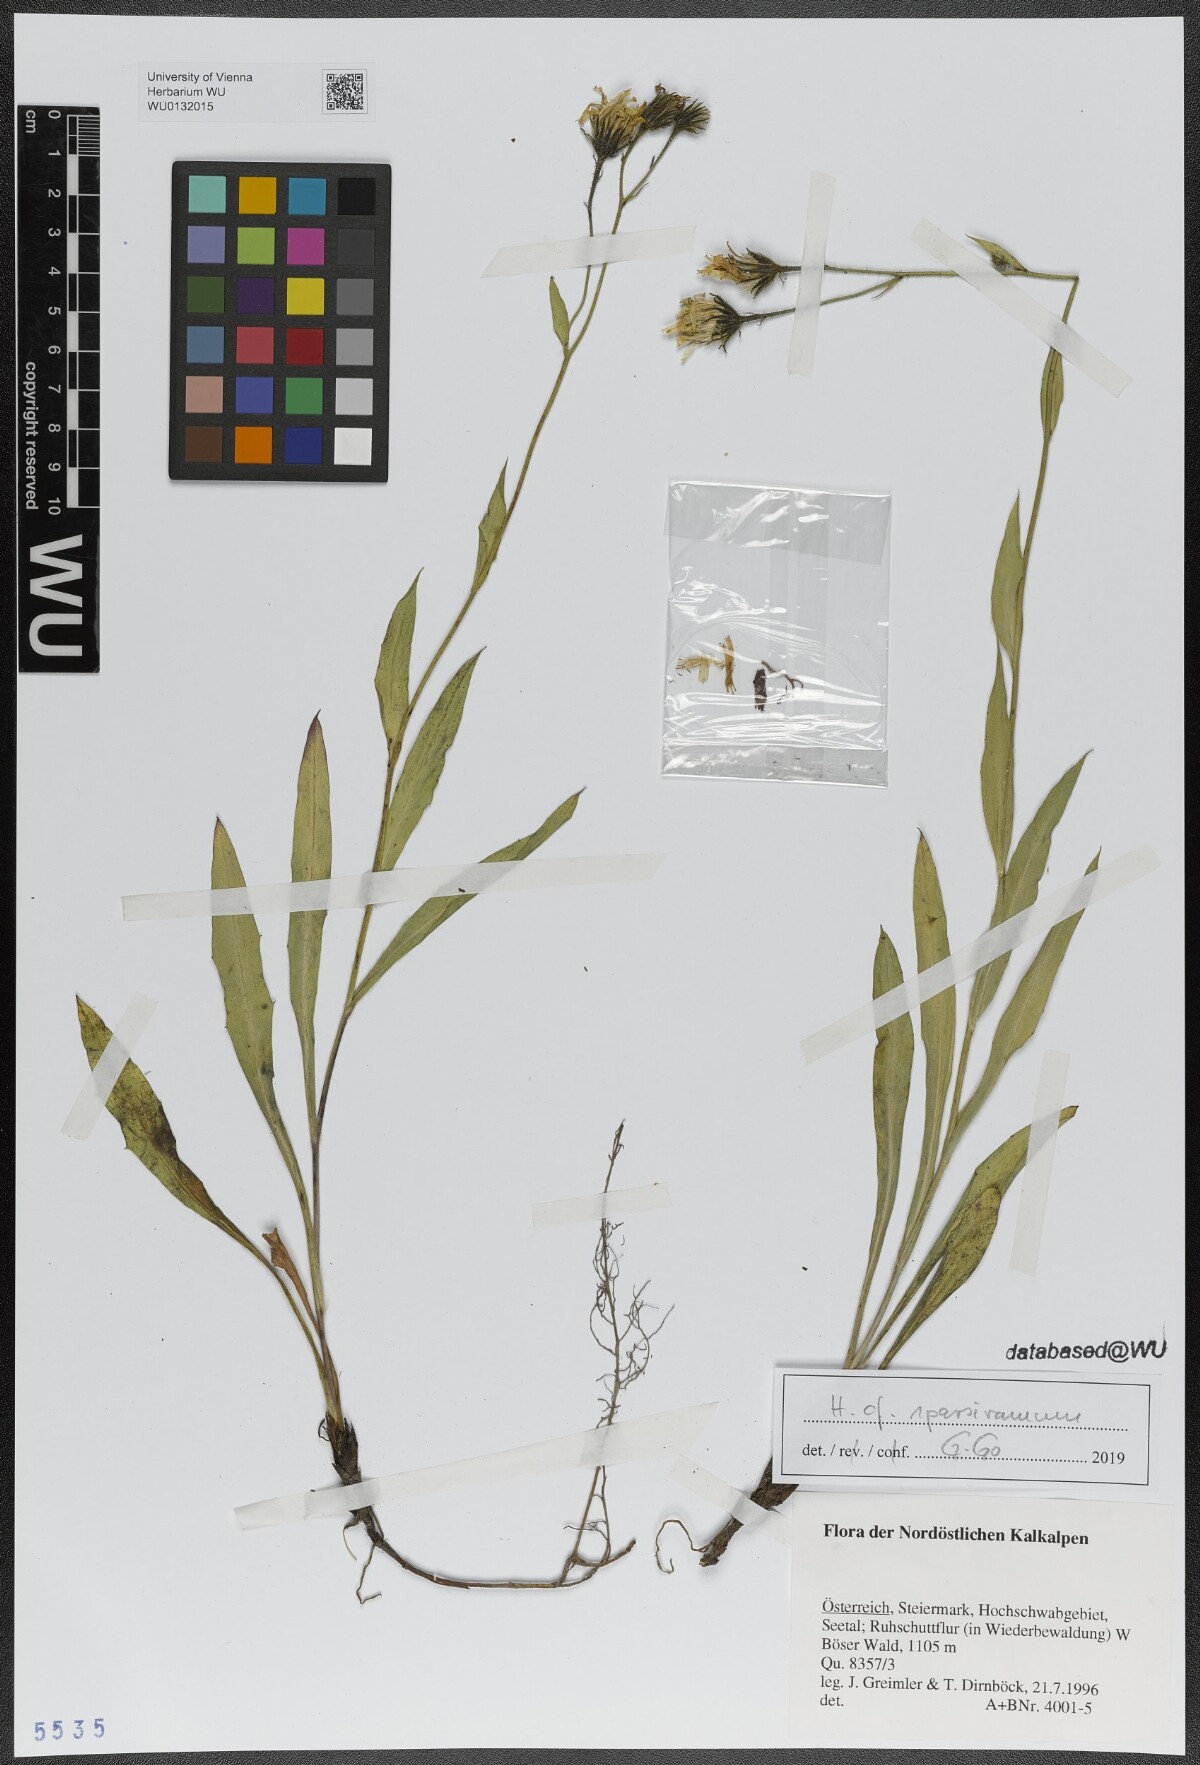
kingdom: Plantae
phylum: Tracheophyta
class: Magnoliopsida
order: Asterales
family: Asteraceae
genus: Hieracium
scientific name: Hieracium sparsiramum
